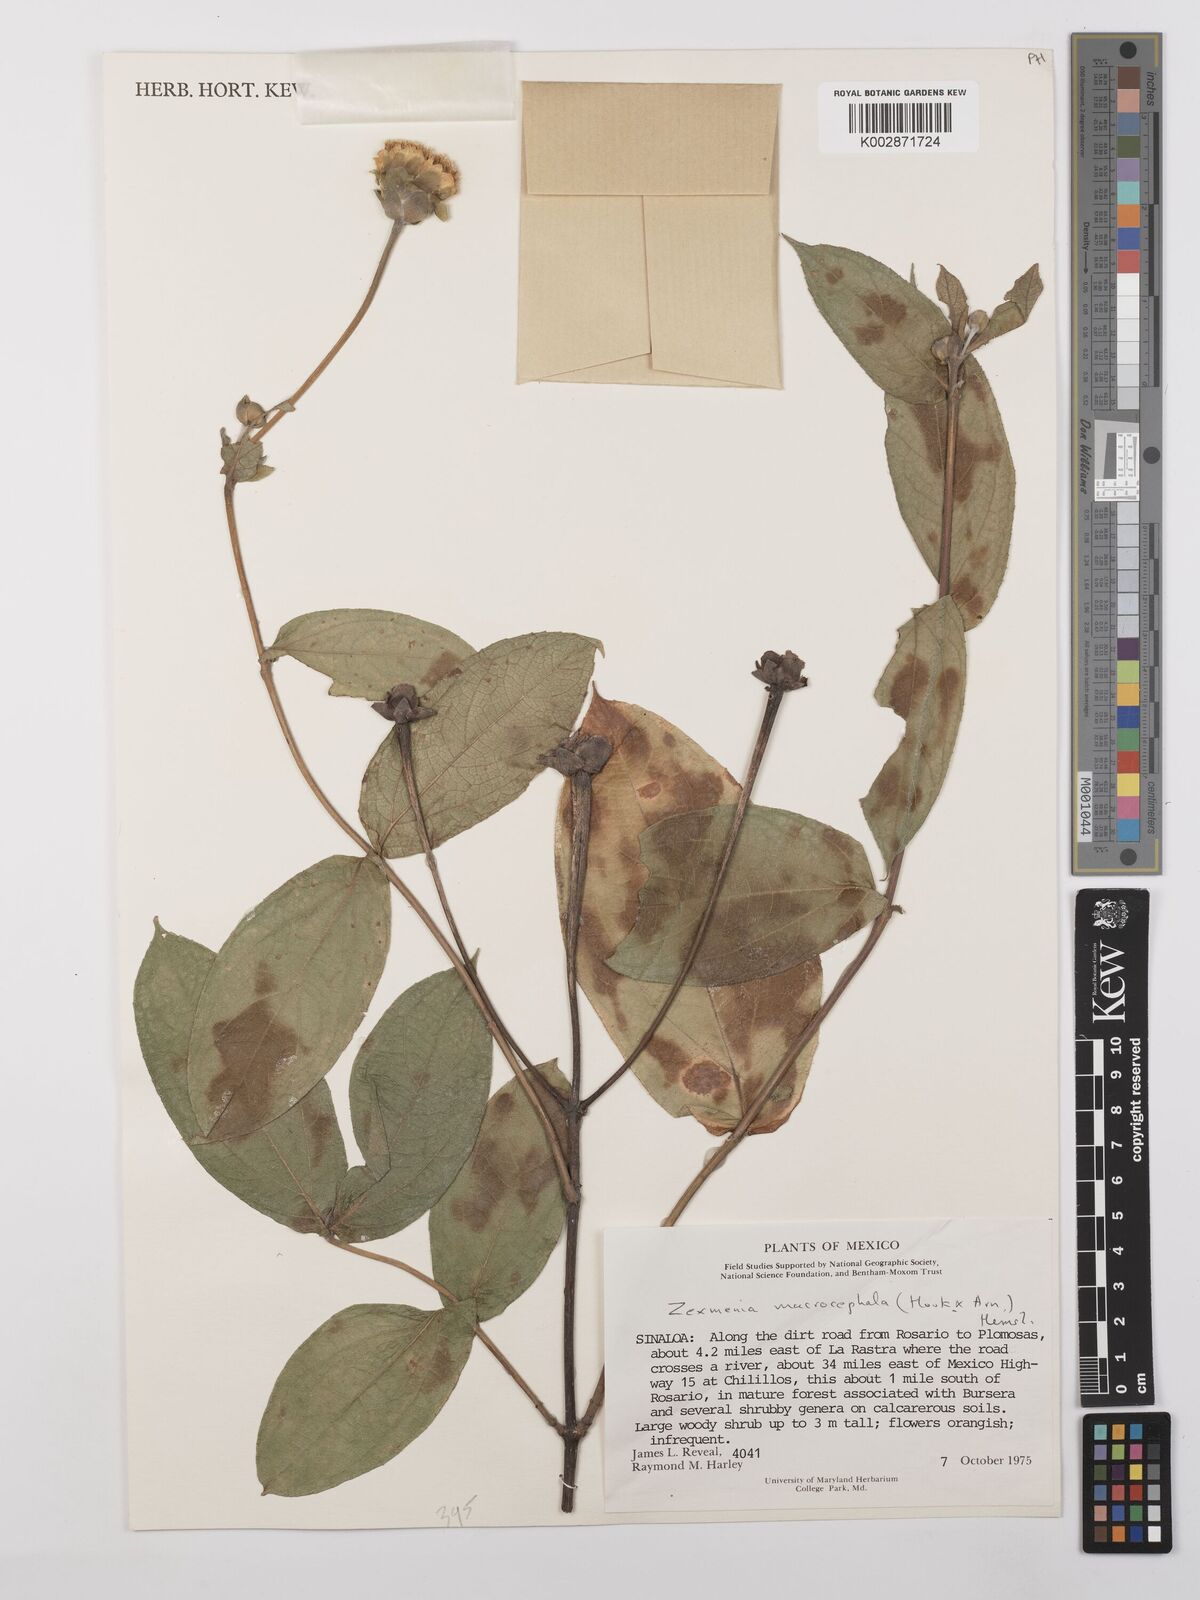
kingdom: Plantae
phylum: Tracheophyta
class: Magnoliopsida
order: Asterales
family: Asteraceae
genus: Lasianthaea
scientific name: Lasianthaea macrocephala
